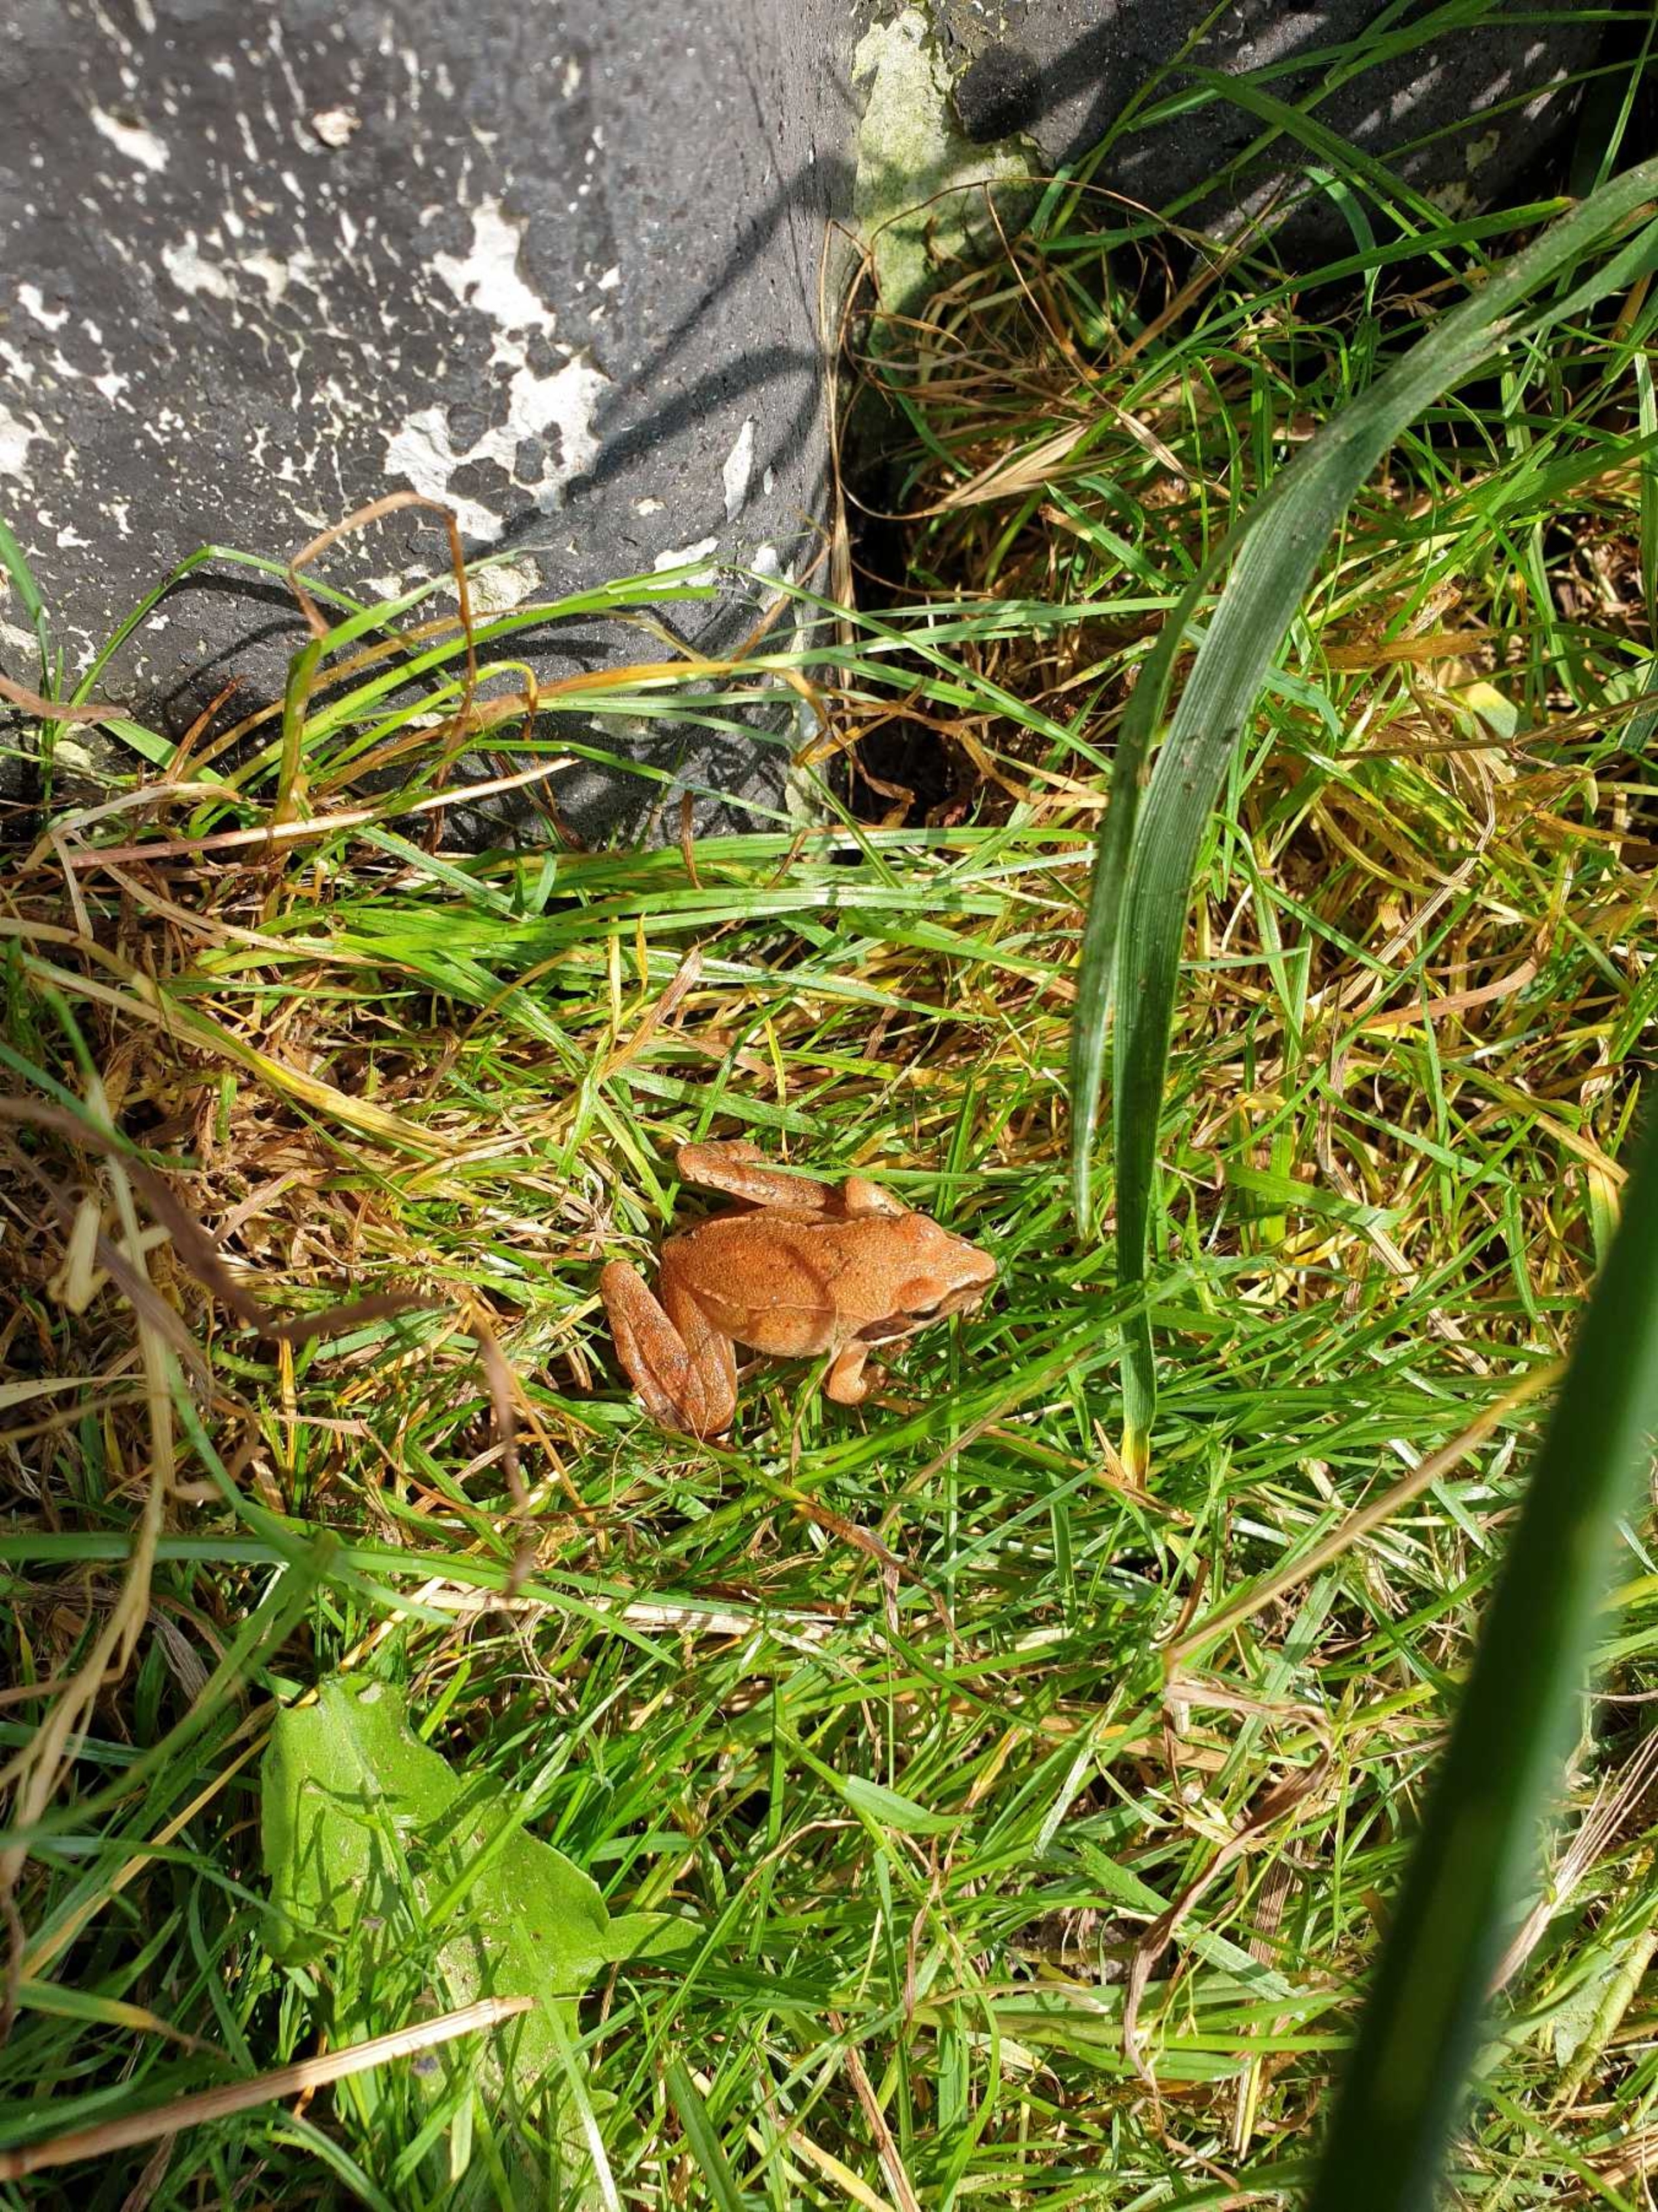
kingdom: Animalia
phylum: Chordata
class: Amphibia
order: Anura
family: Ranidae
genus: Rana
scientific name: Rana dalmatina
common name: Springfrø
